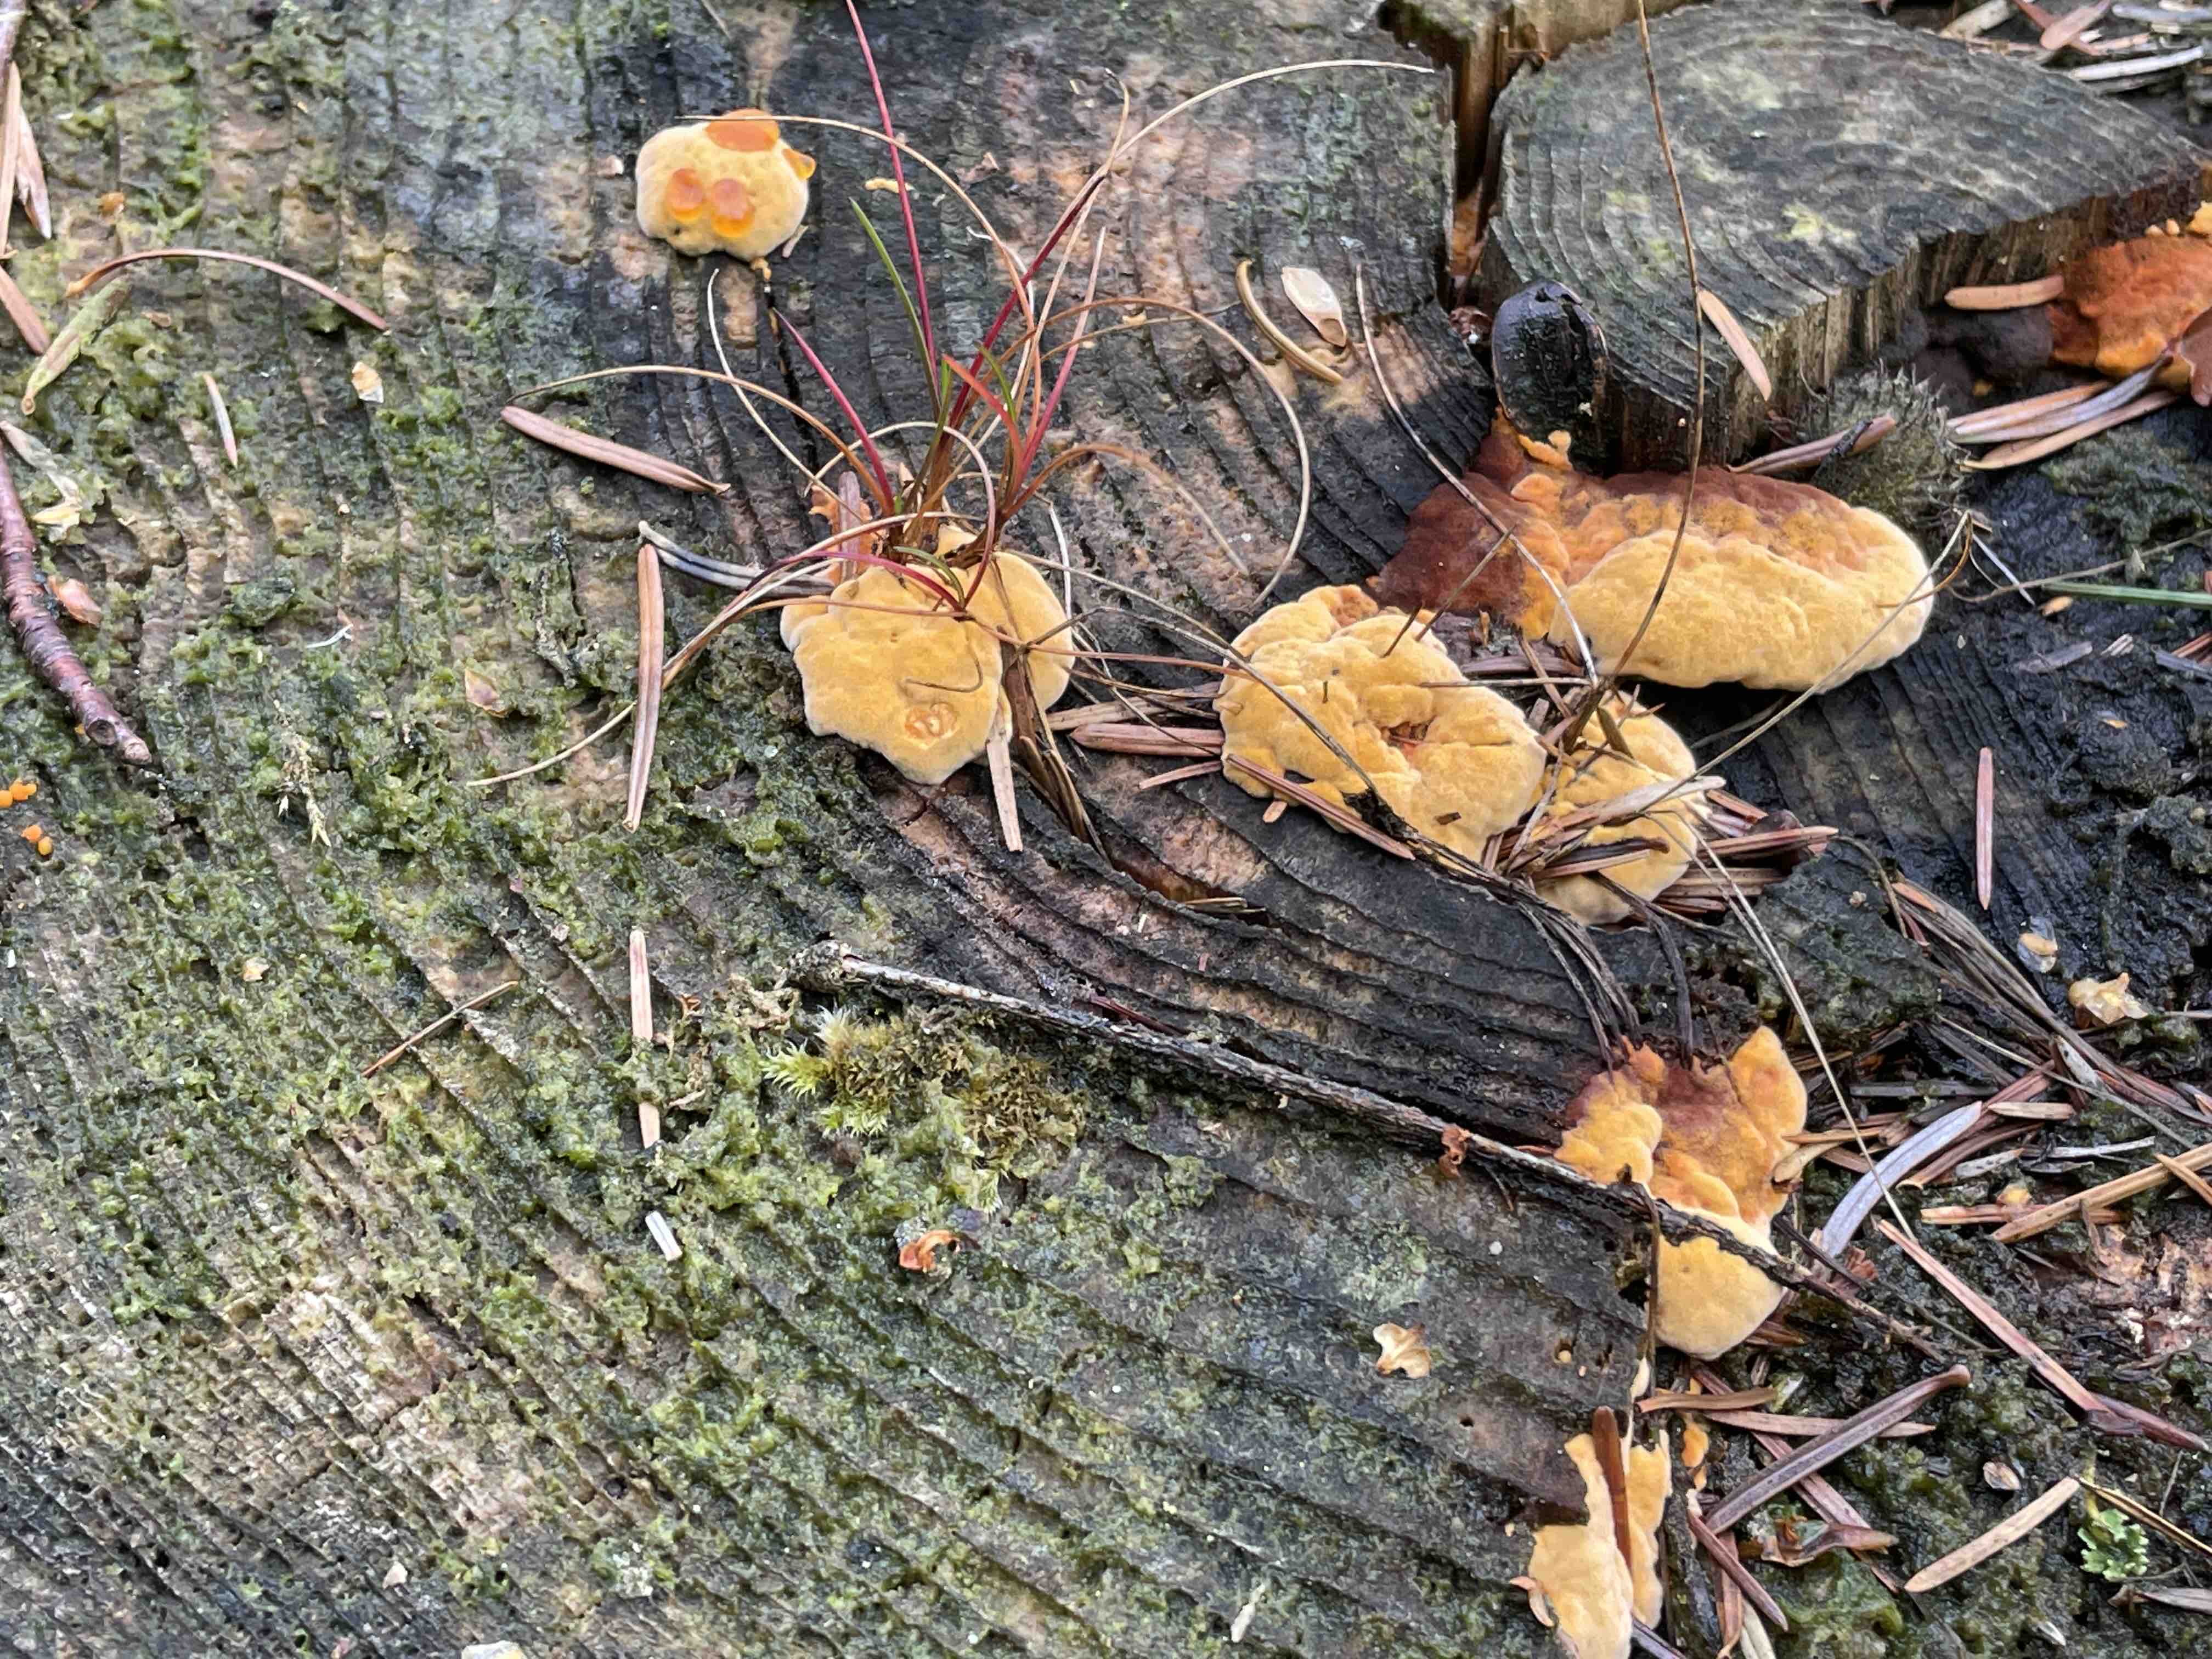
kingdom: Fungi
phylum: Basidiomycota
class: Agaricomycetes
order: Gloeophyllales
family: Gloeophyllaceae
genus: Gloeophyllum
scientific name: Gloeophyllum odoratum
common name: duftende korkhat
